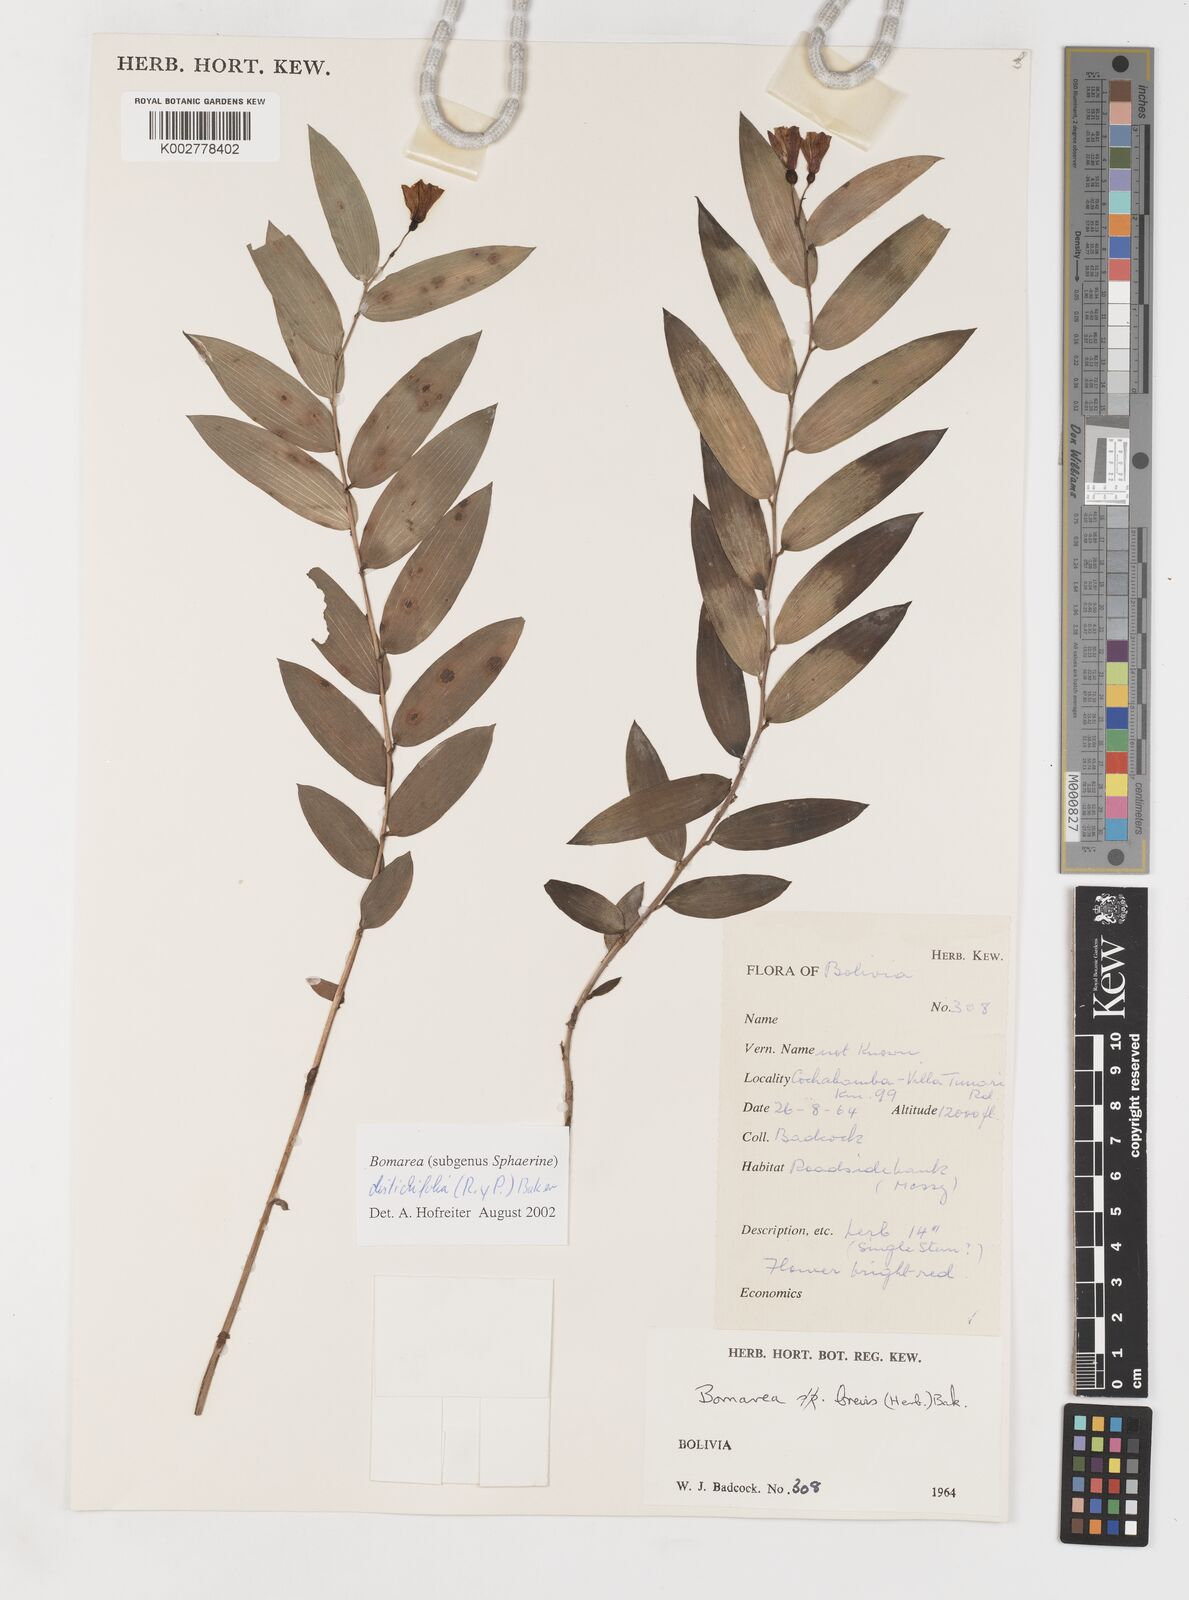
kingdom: Plantae
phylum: Tracheophyta
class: Liliopsida
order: Liliales
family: Alstroemeriaceae
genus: Bomarea
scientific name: Bomarea distichifolia
